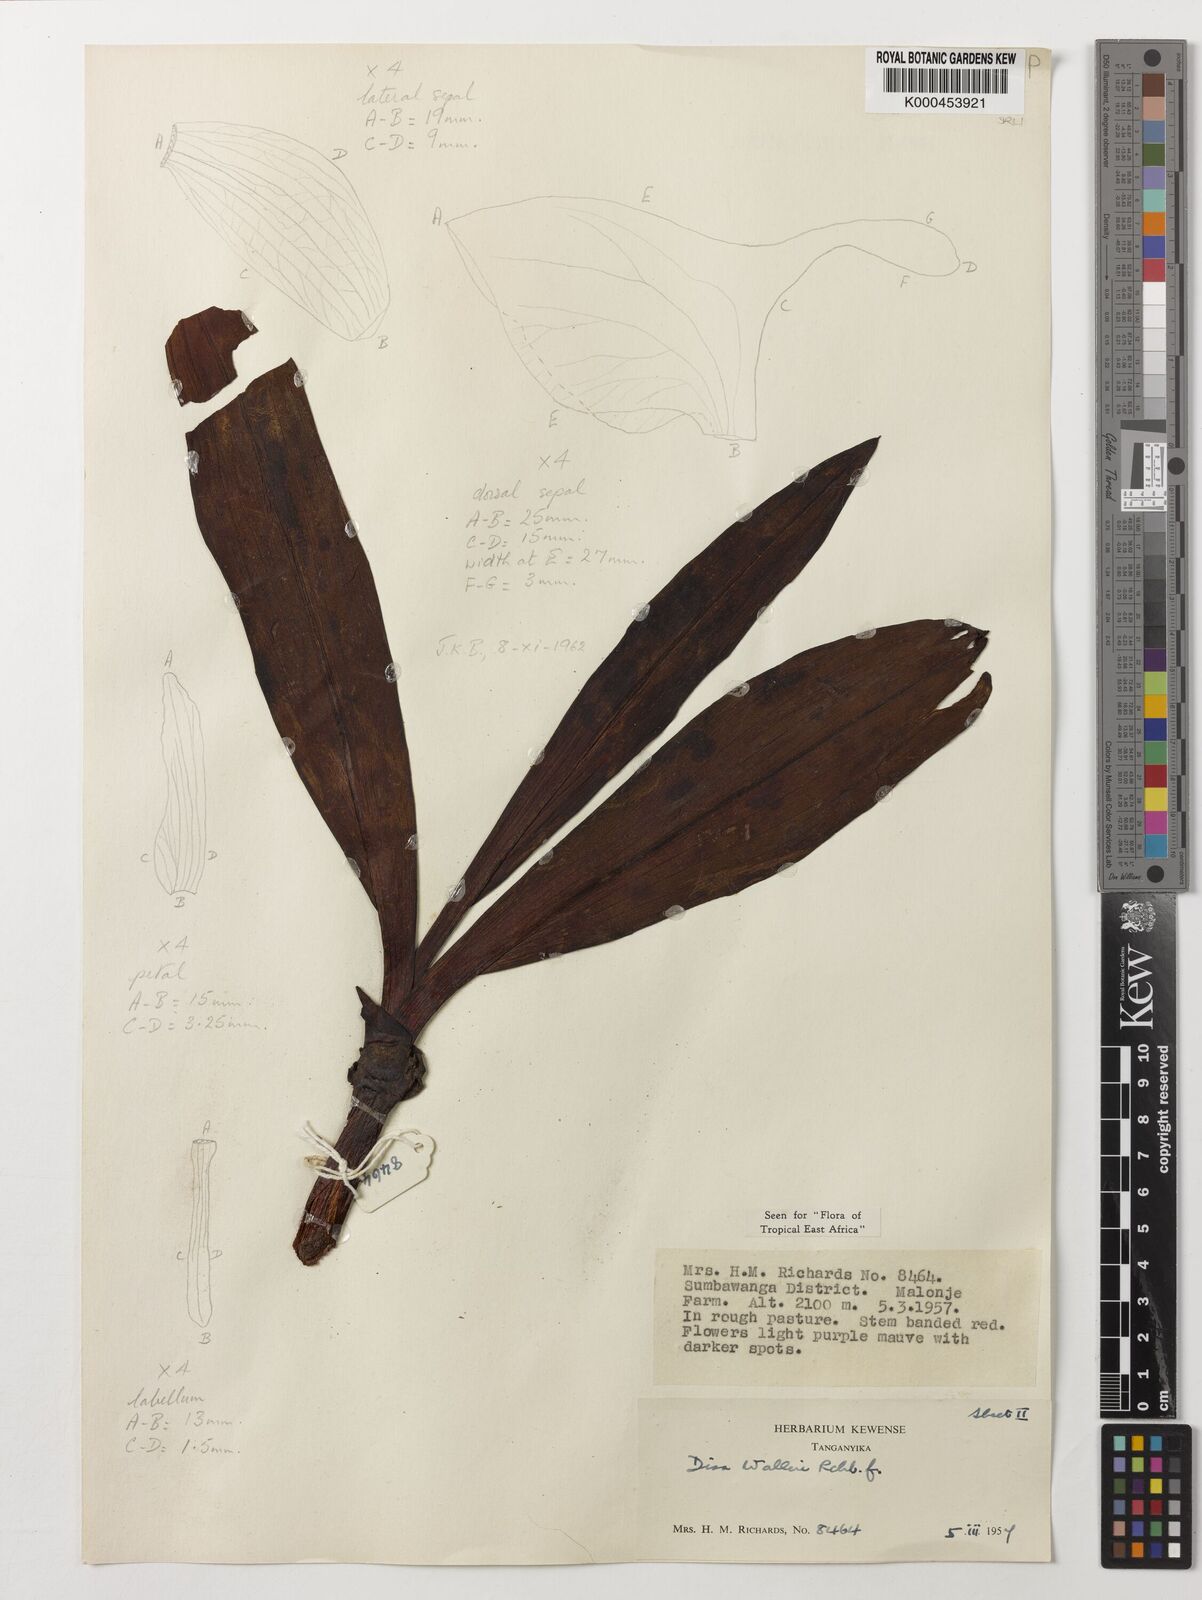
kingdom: Plantae
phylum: Tracheophyta
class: Liliopsida
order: Asparagales
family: Orchidaceae
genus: Disa
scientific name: Disa walleri
